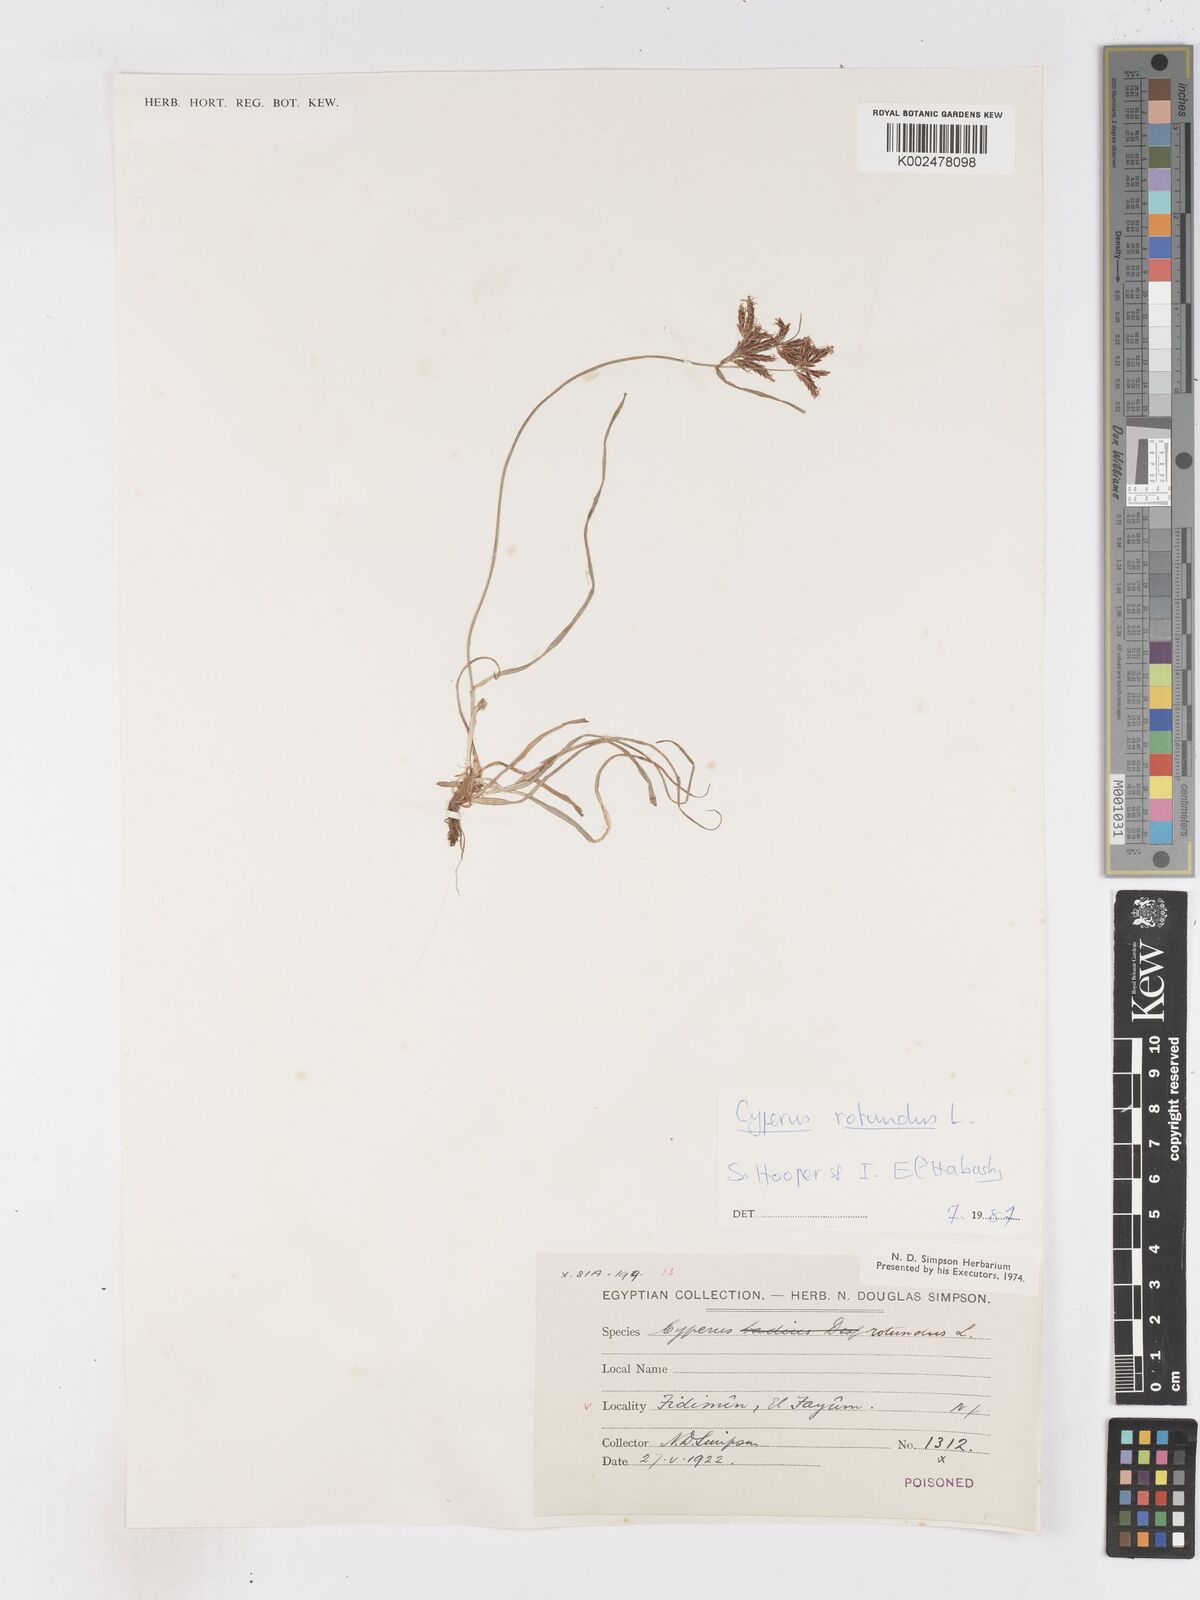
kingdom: Plantae
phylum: Tracheophyta
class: Liliopsida
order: Poales
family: Cyperaceae
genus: Cyperus
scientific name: Cyperus rotundus
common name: Nutgrass
